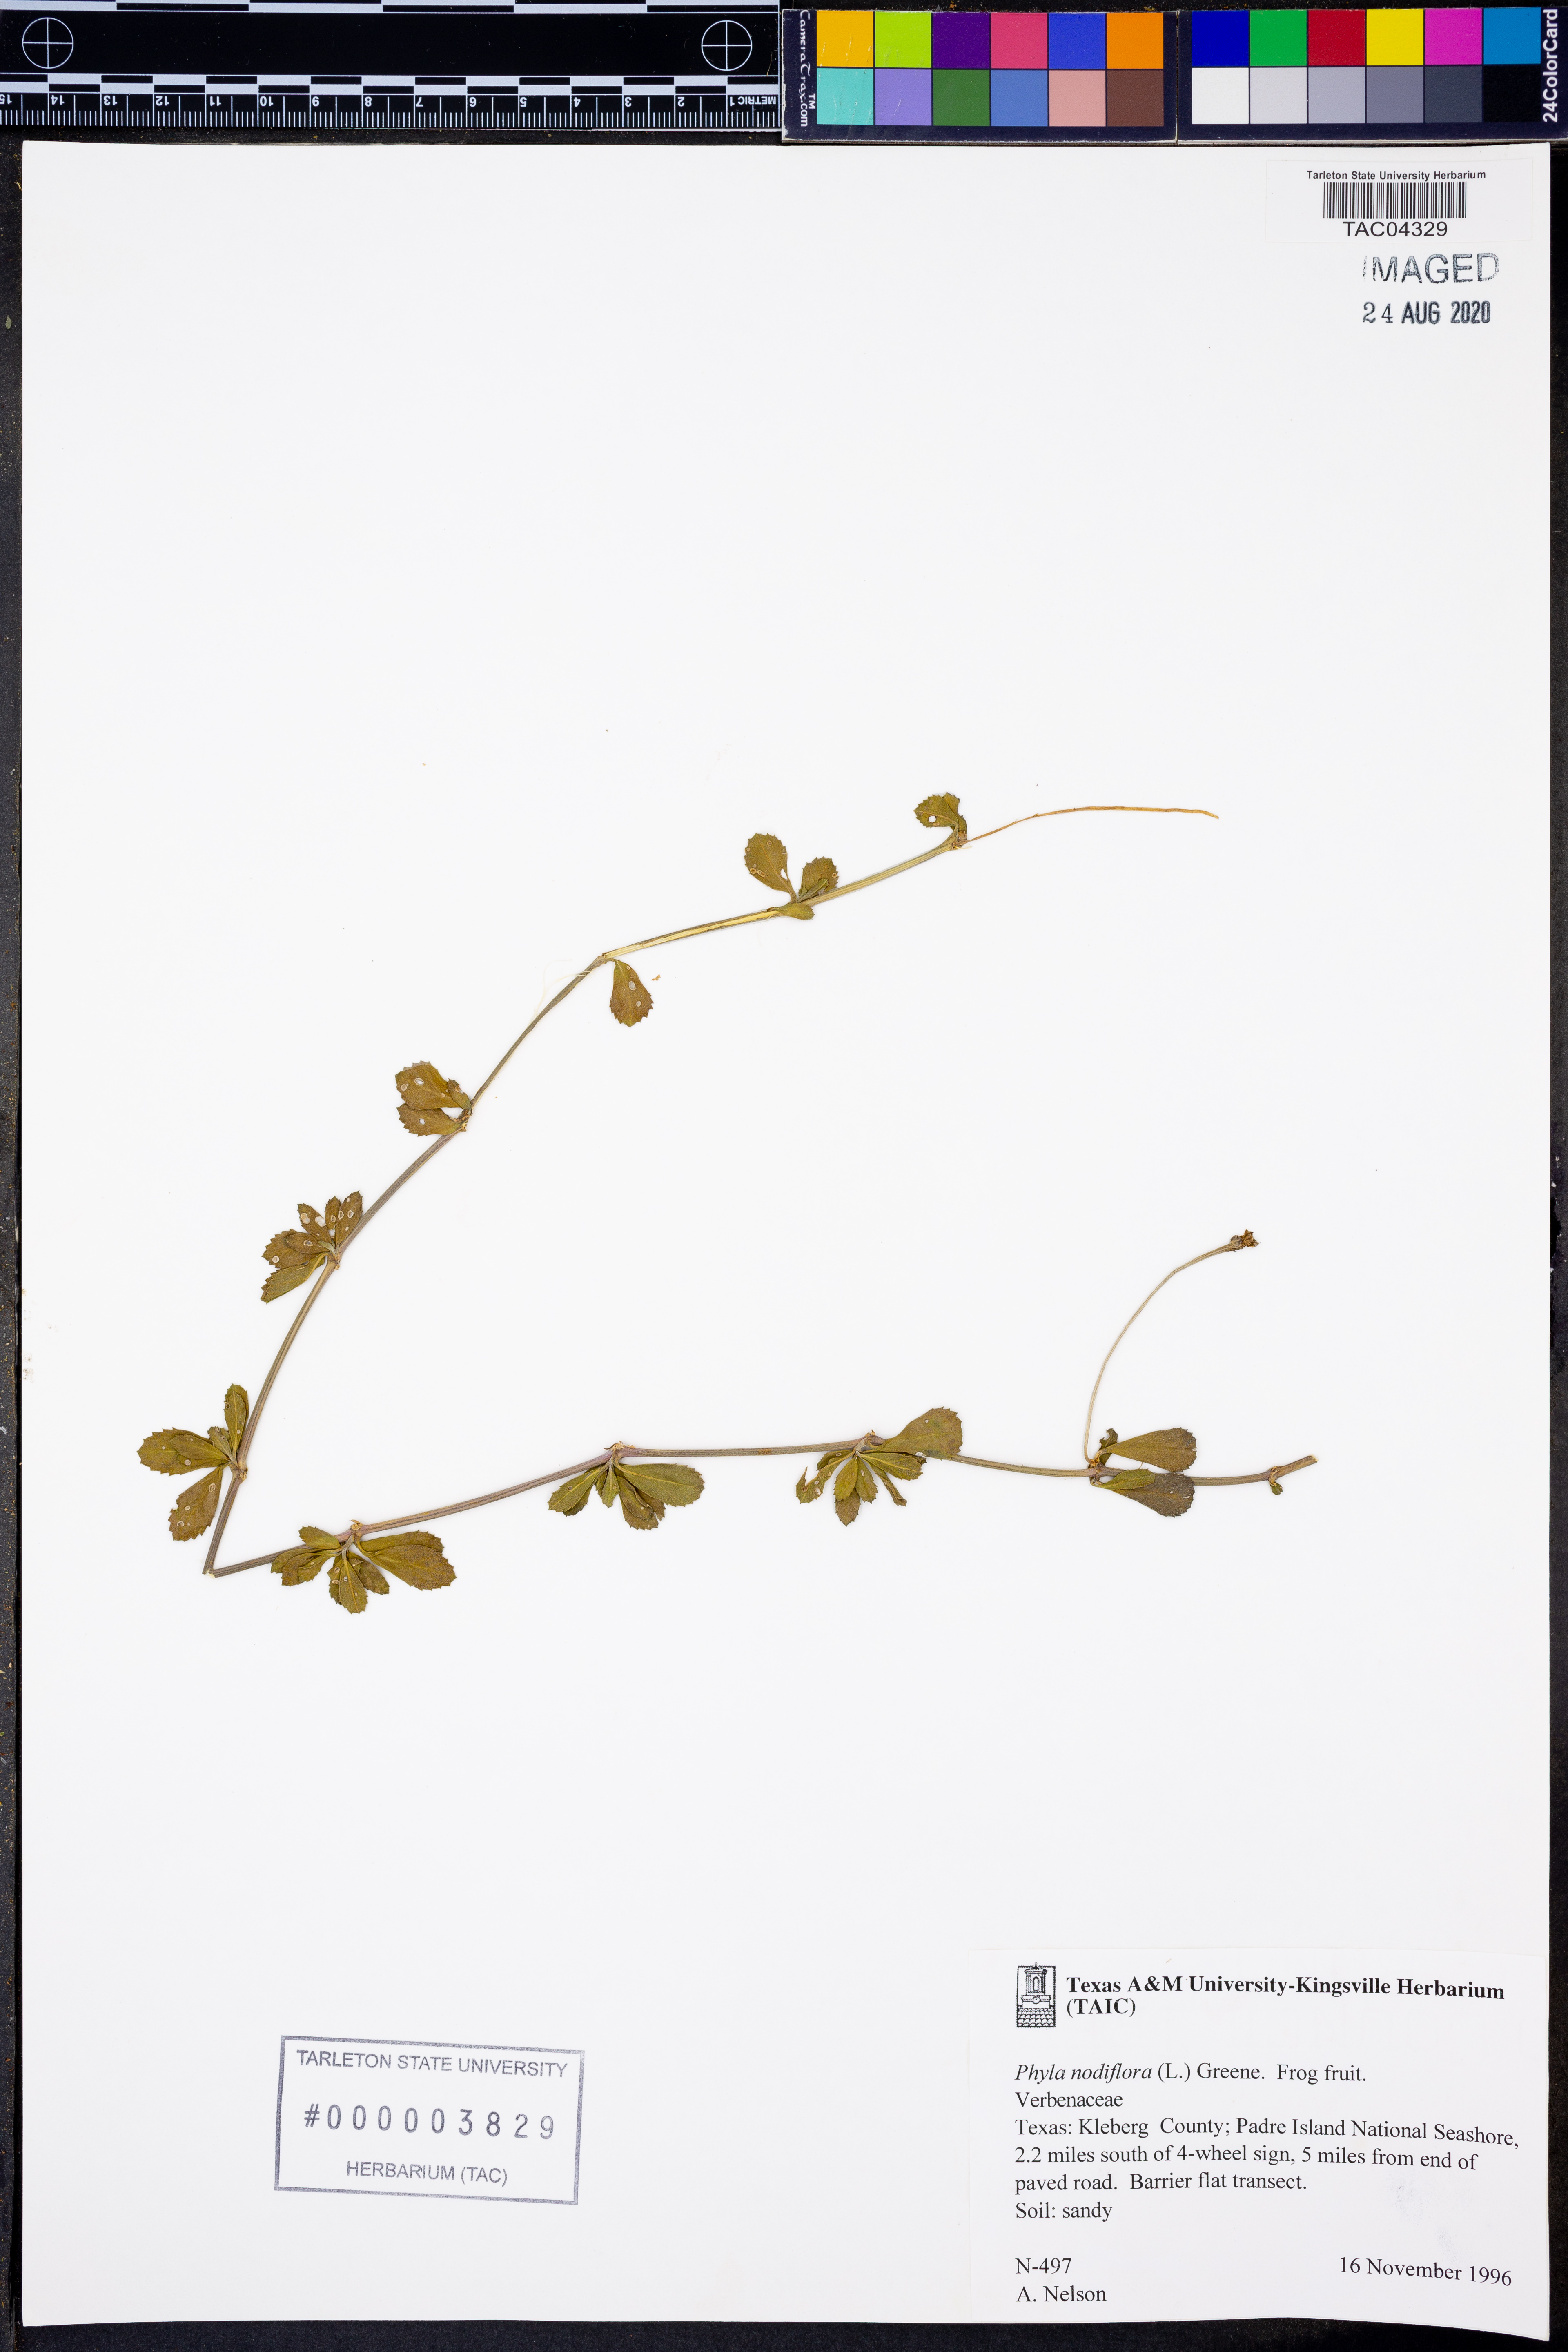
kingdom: Plantae
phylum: Tracheophyta
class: Magnoliopsida
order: Lamiales
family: Verbenaceae
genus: Phyla
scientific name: Phyla nodiflora
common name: Frogfruit
